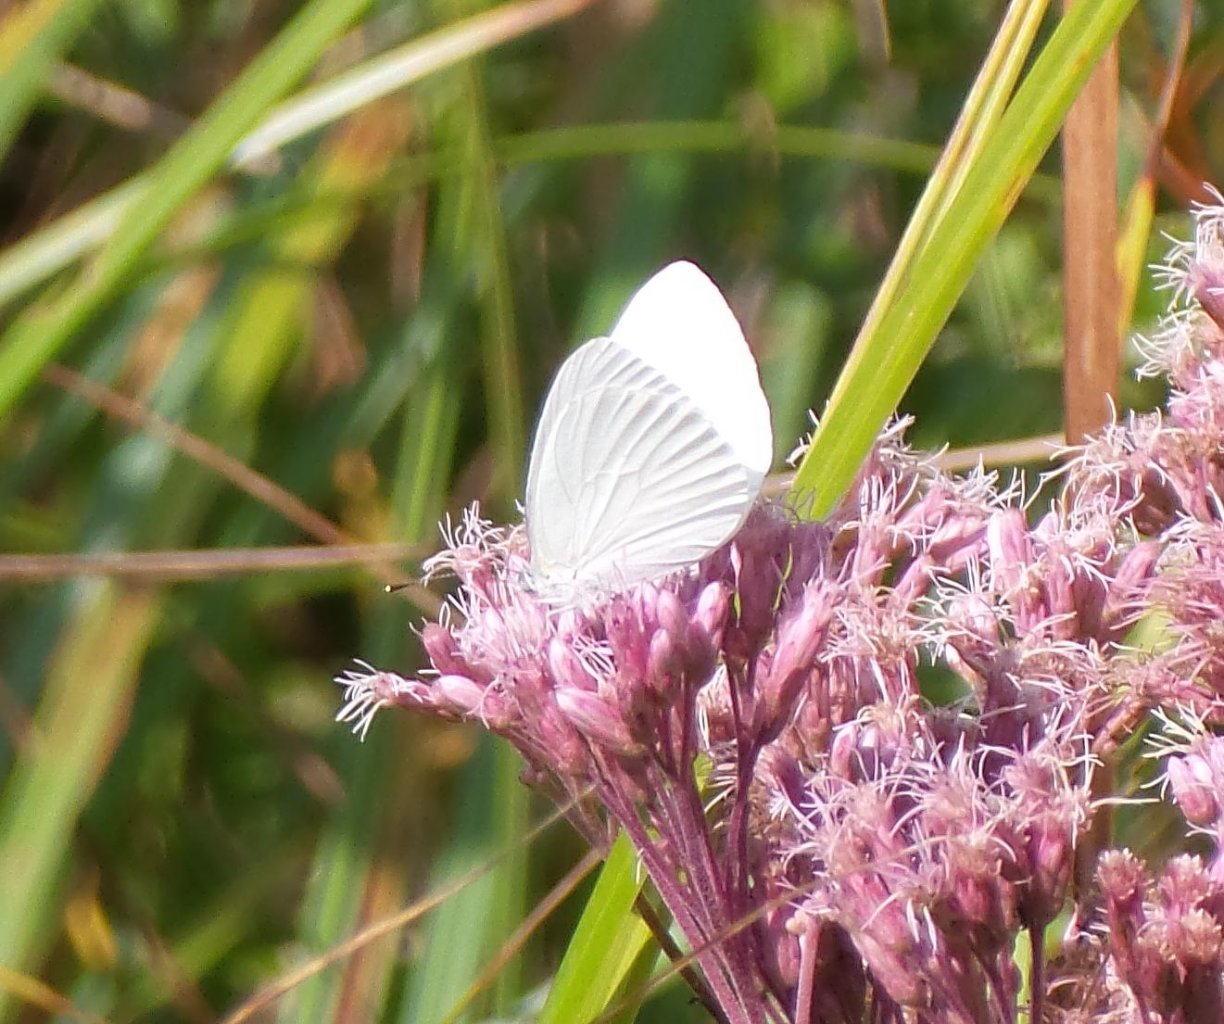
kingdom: Animalia
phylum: Arthropoda
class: Insecta
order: Lepidoptera
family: Pieridae
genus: Pieris
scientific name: Pieris oleracea
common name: Mustard White
